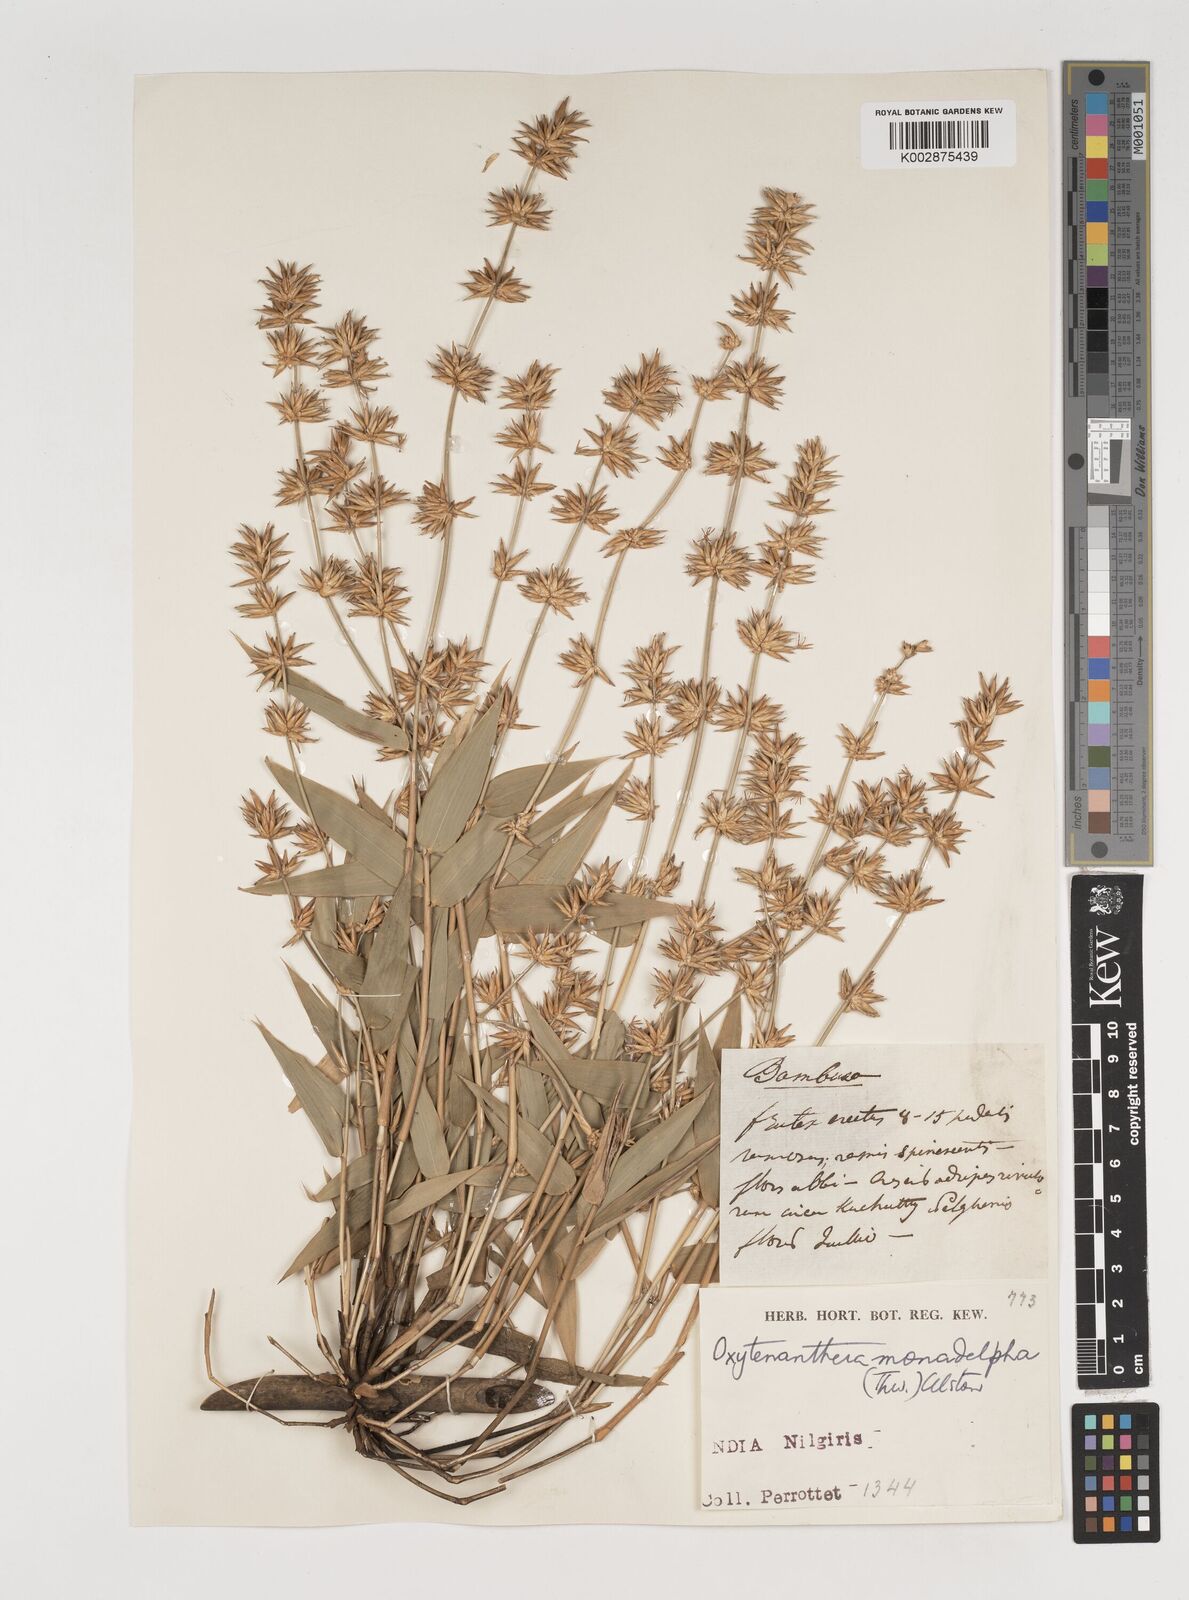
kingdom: Plantae
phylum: Tracheophyta
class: Liliopsida
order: Poales
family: Poaceae
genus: Pseudoxytenanthera
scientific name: Pseudoxytenanthera monadelpha
